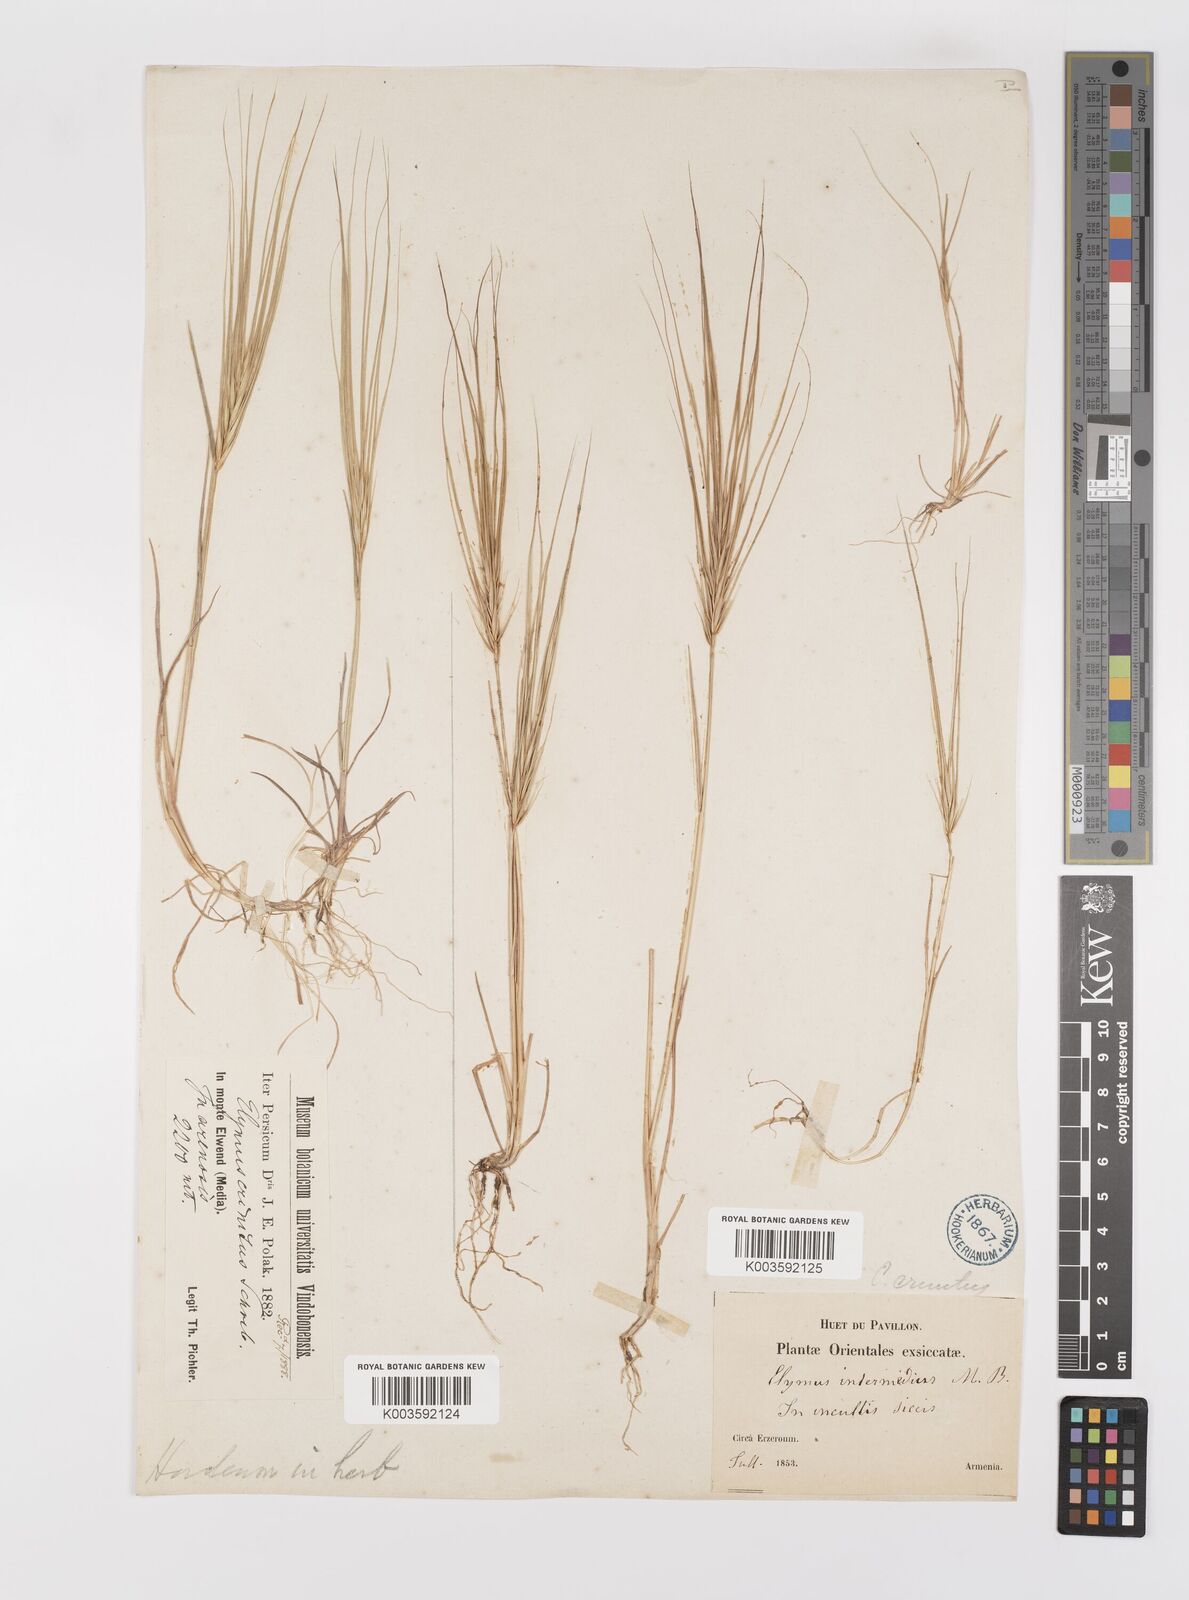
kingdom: Plantae
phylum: Tracheophyta
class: Liliopsida
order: Poales
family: Poaceae
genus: Taeniatherum
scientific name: Taeniatherum caput-medusae
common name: Medusahead
